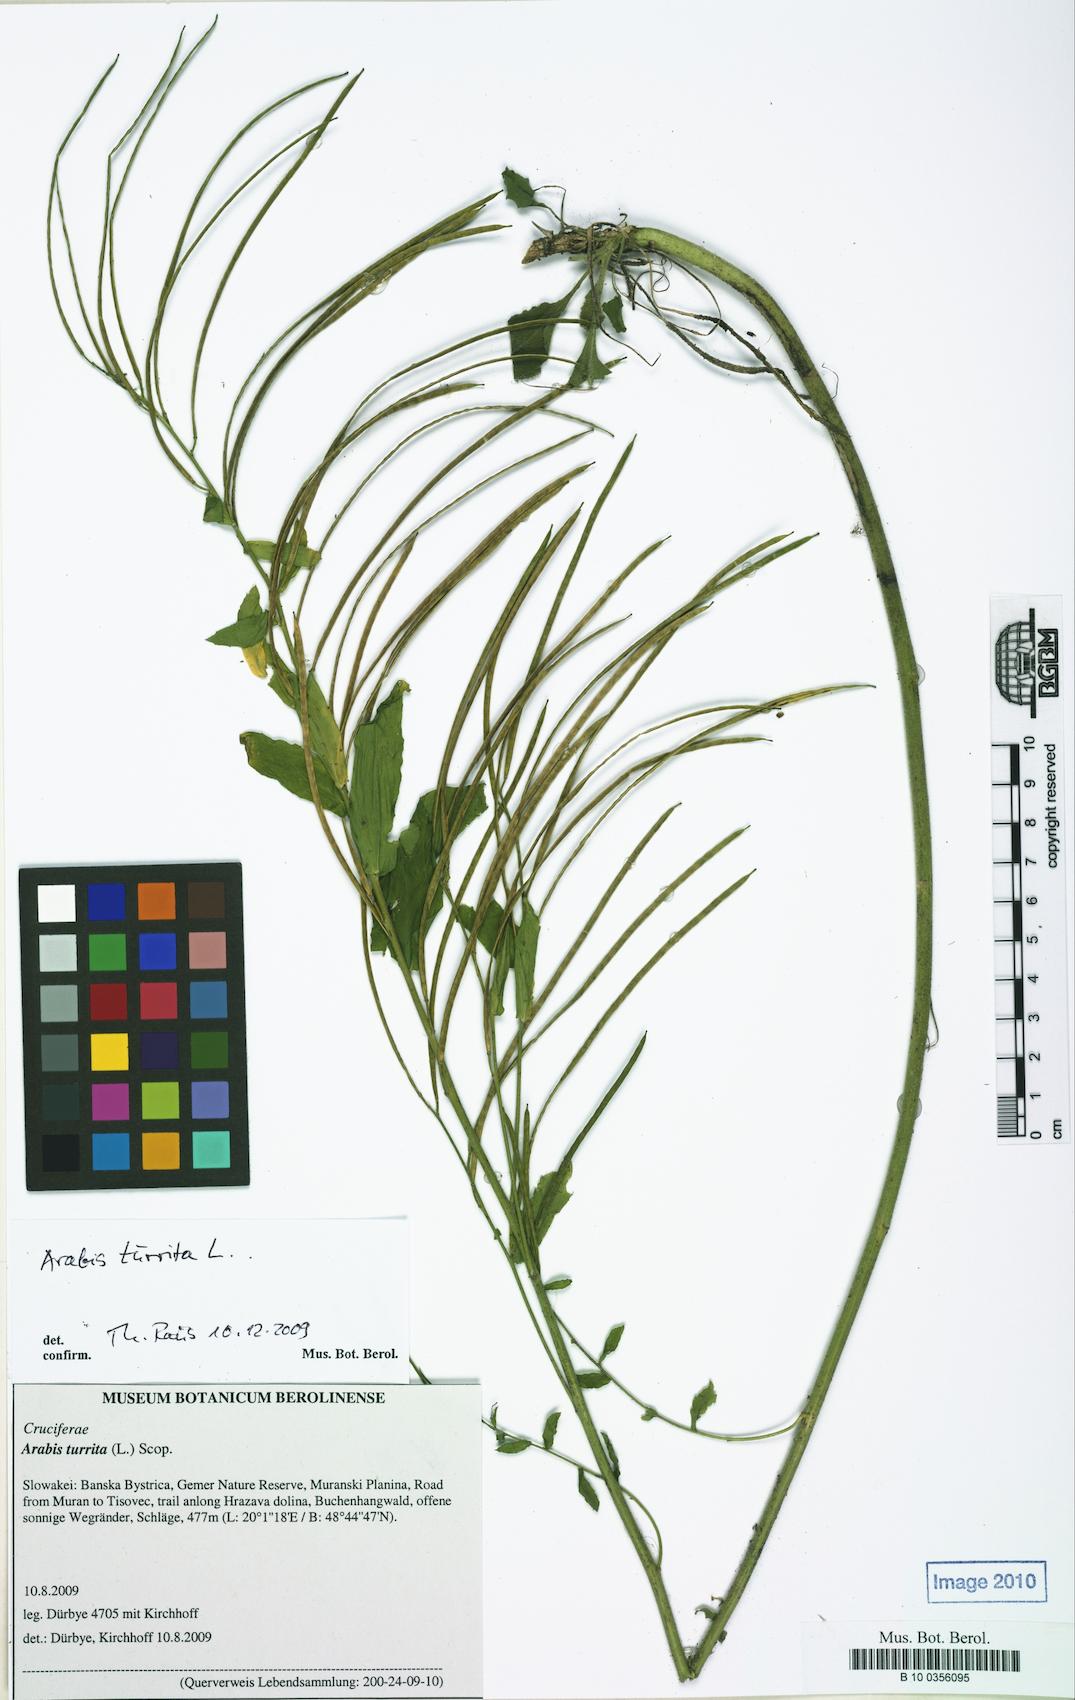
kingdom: Plantae
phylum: Tracheophyta
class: Magnoliopsida
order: Brassicales
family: Brassicaceae
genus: Pseudoturritis
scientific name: Pseudoturritis turrita
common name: Tower cress
